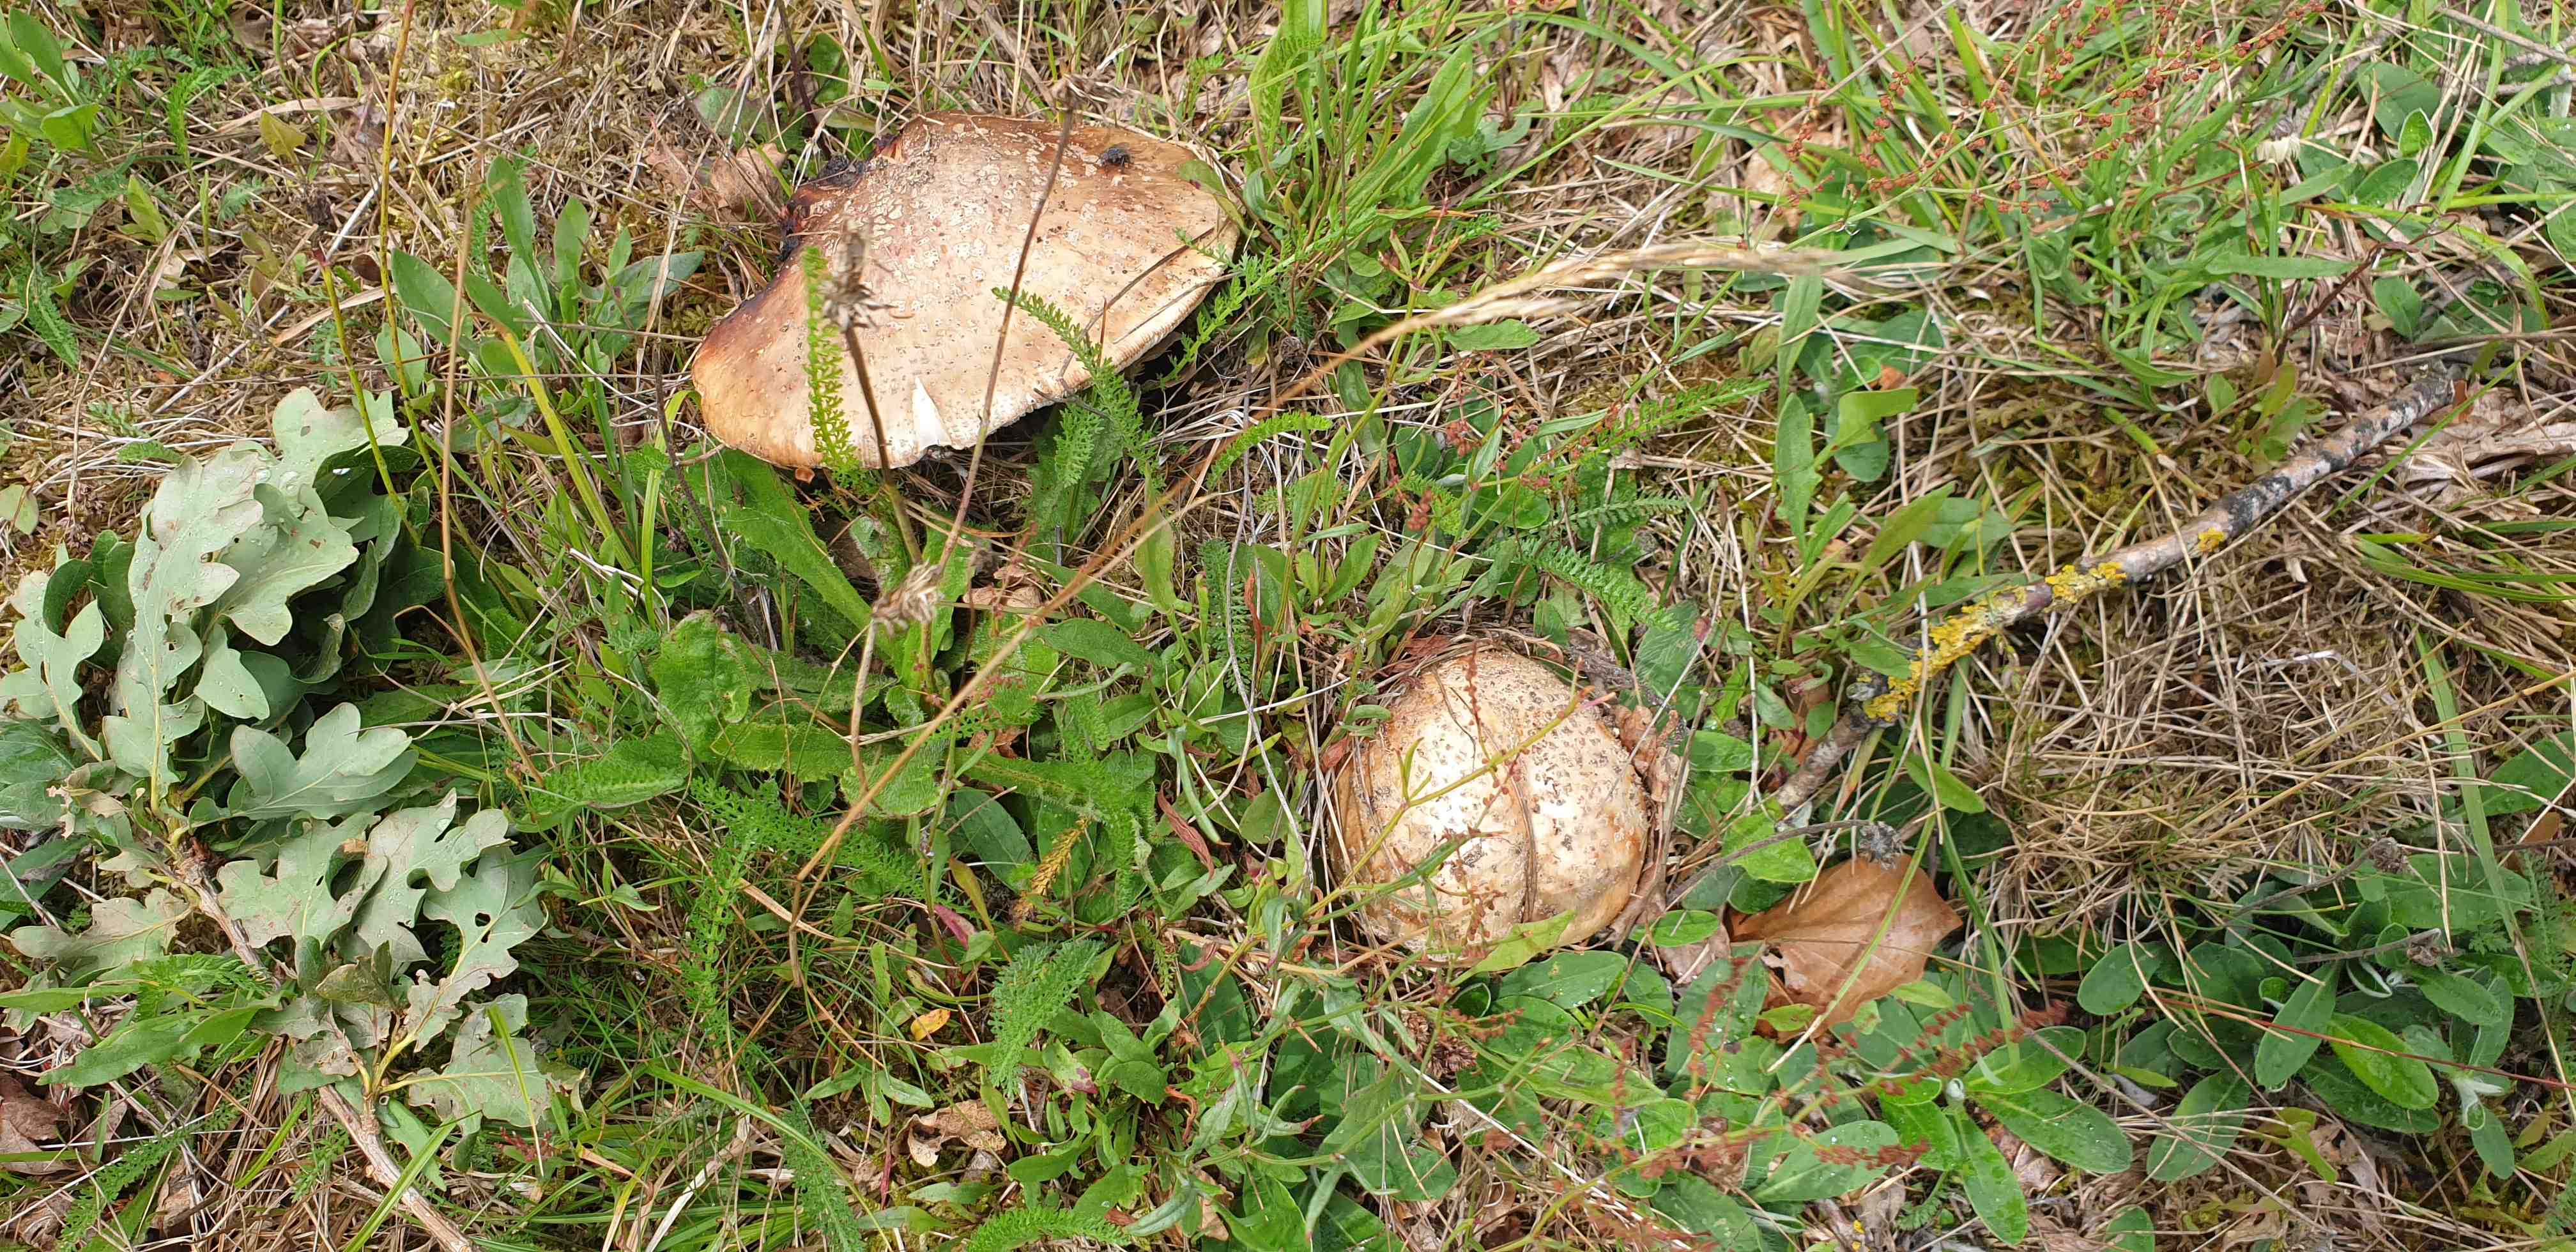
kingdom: Fungi
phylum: Basidiomycota
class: Agaricomycetes
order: Agaricales
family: Amanitaceae
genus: Amanita
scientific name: Amanita rubescens
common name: rødmende fluesvamp
